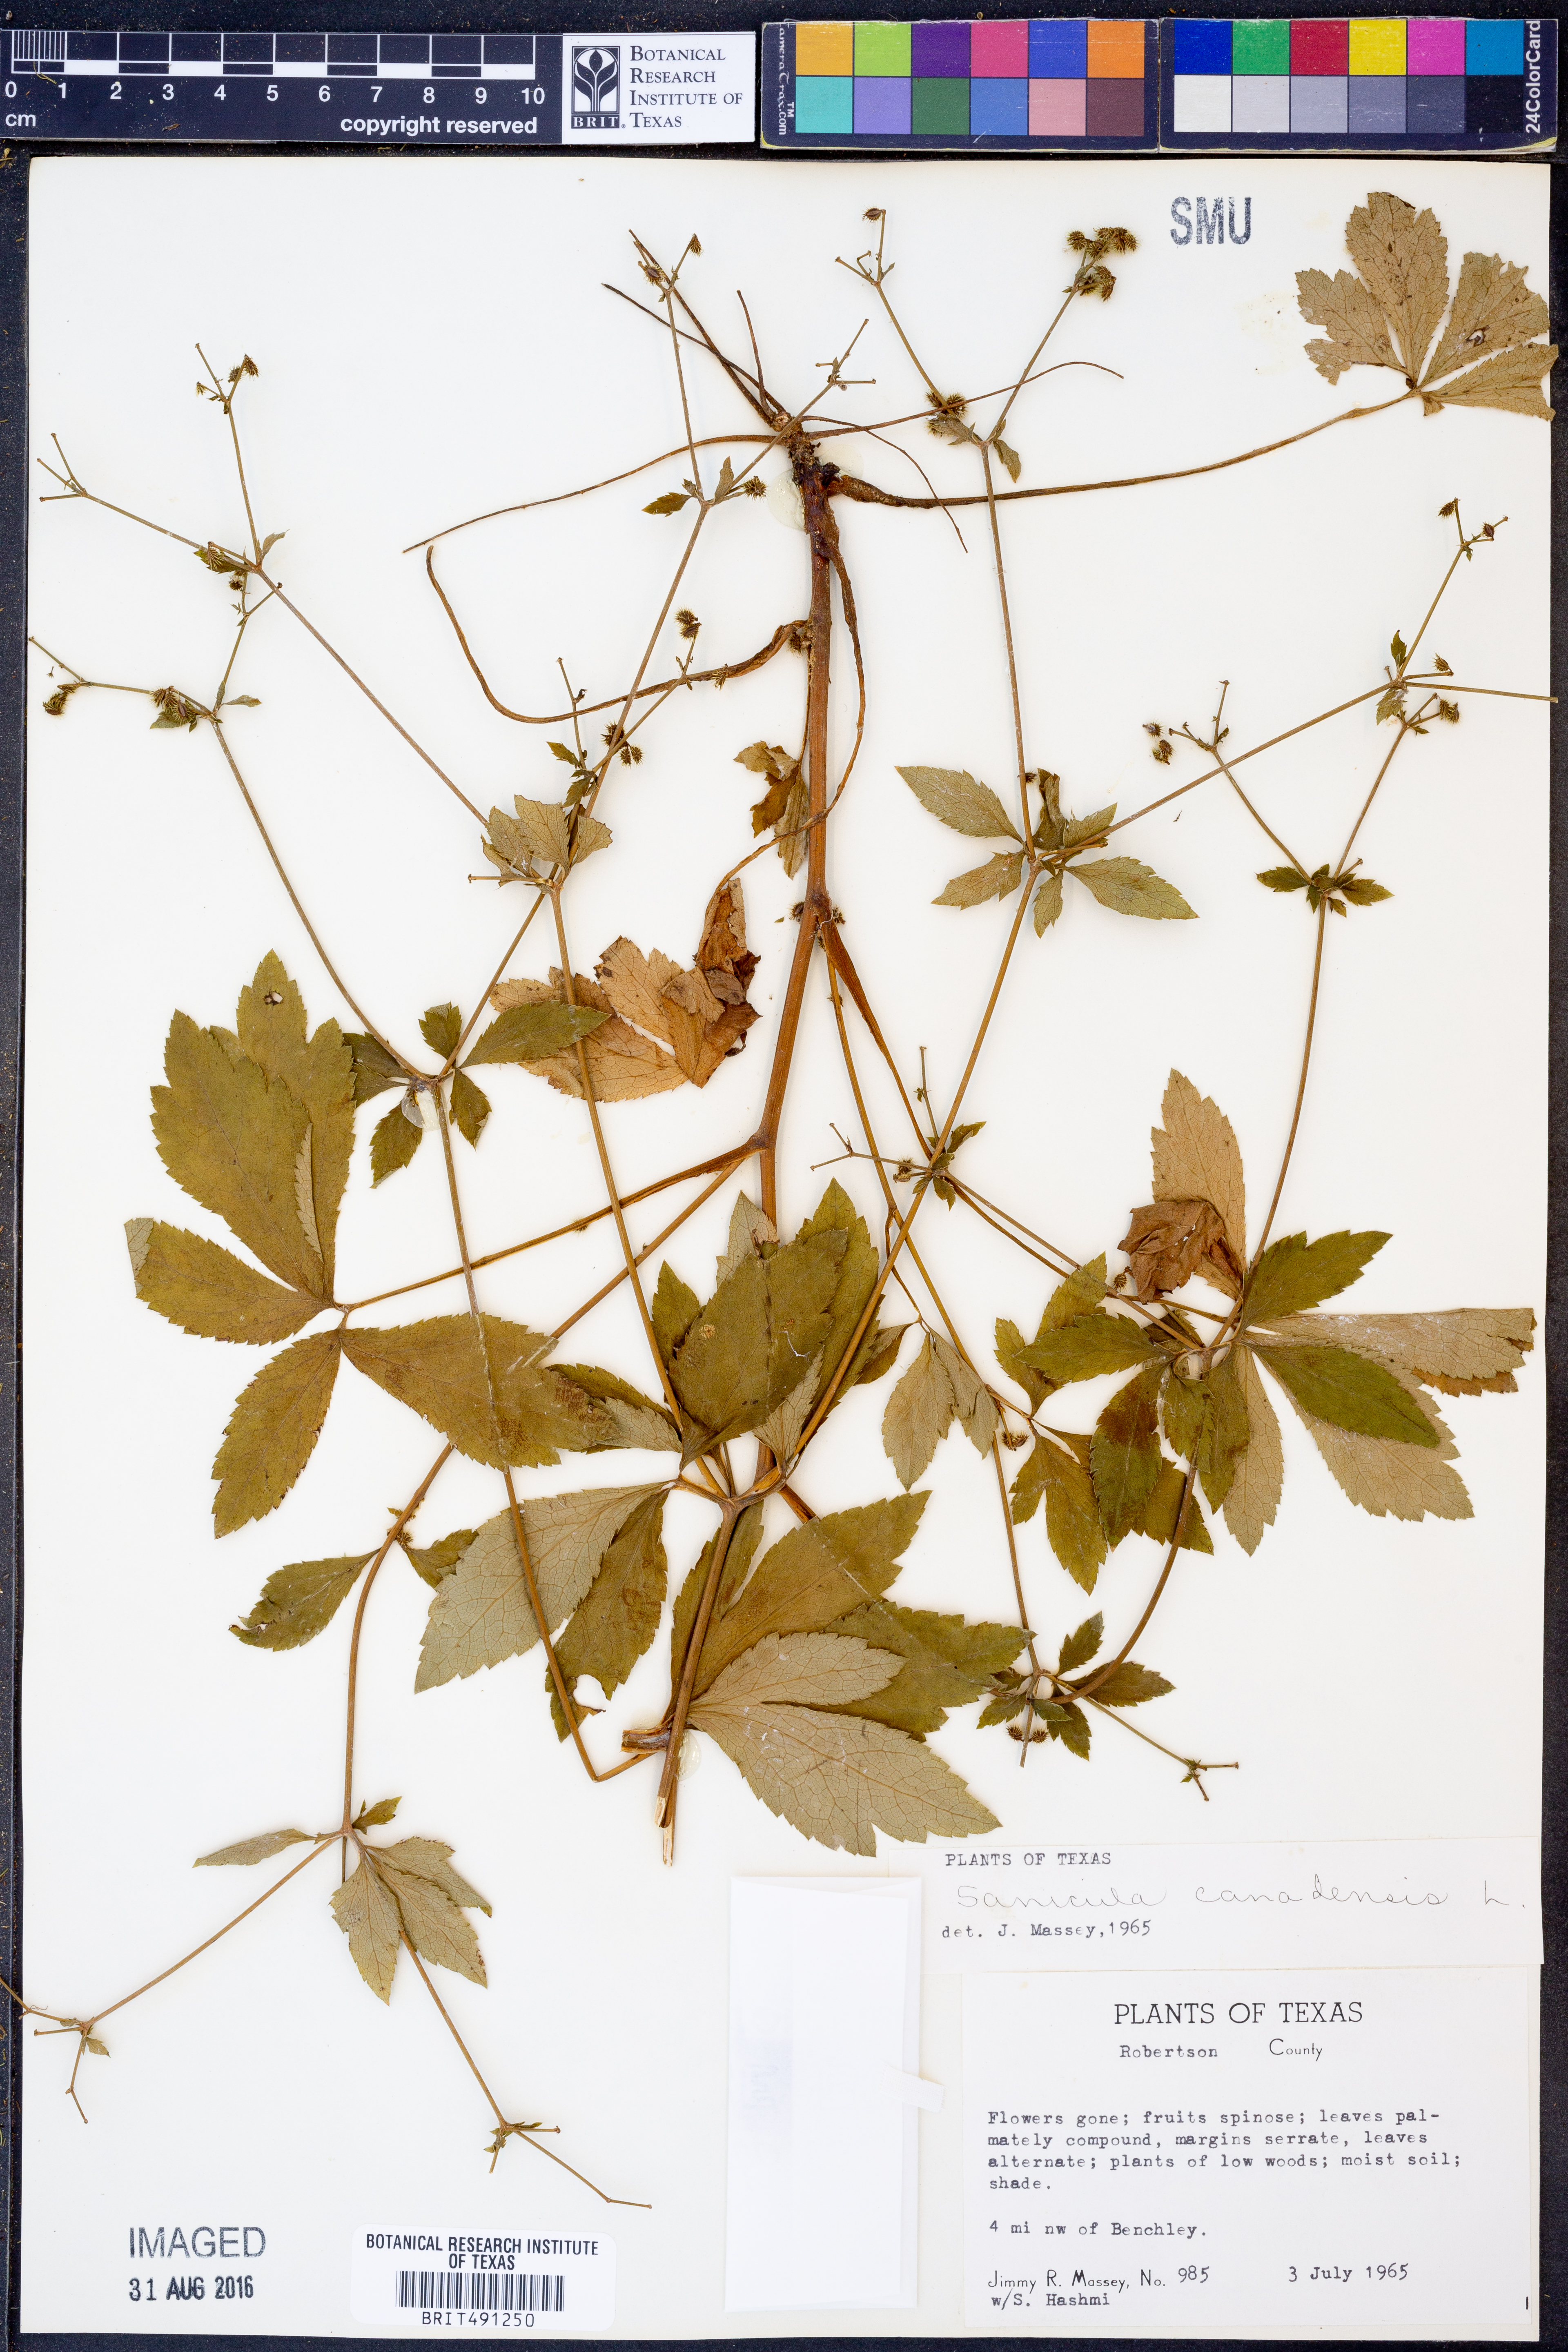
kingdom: Plantae
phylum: Tracheophyta
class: Magnoliopsida
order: Apiales
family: Apiaceae
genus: Sanicula
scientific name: Sanicula canadensis
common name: Canada sanicle
